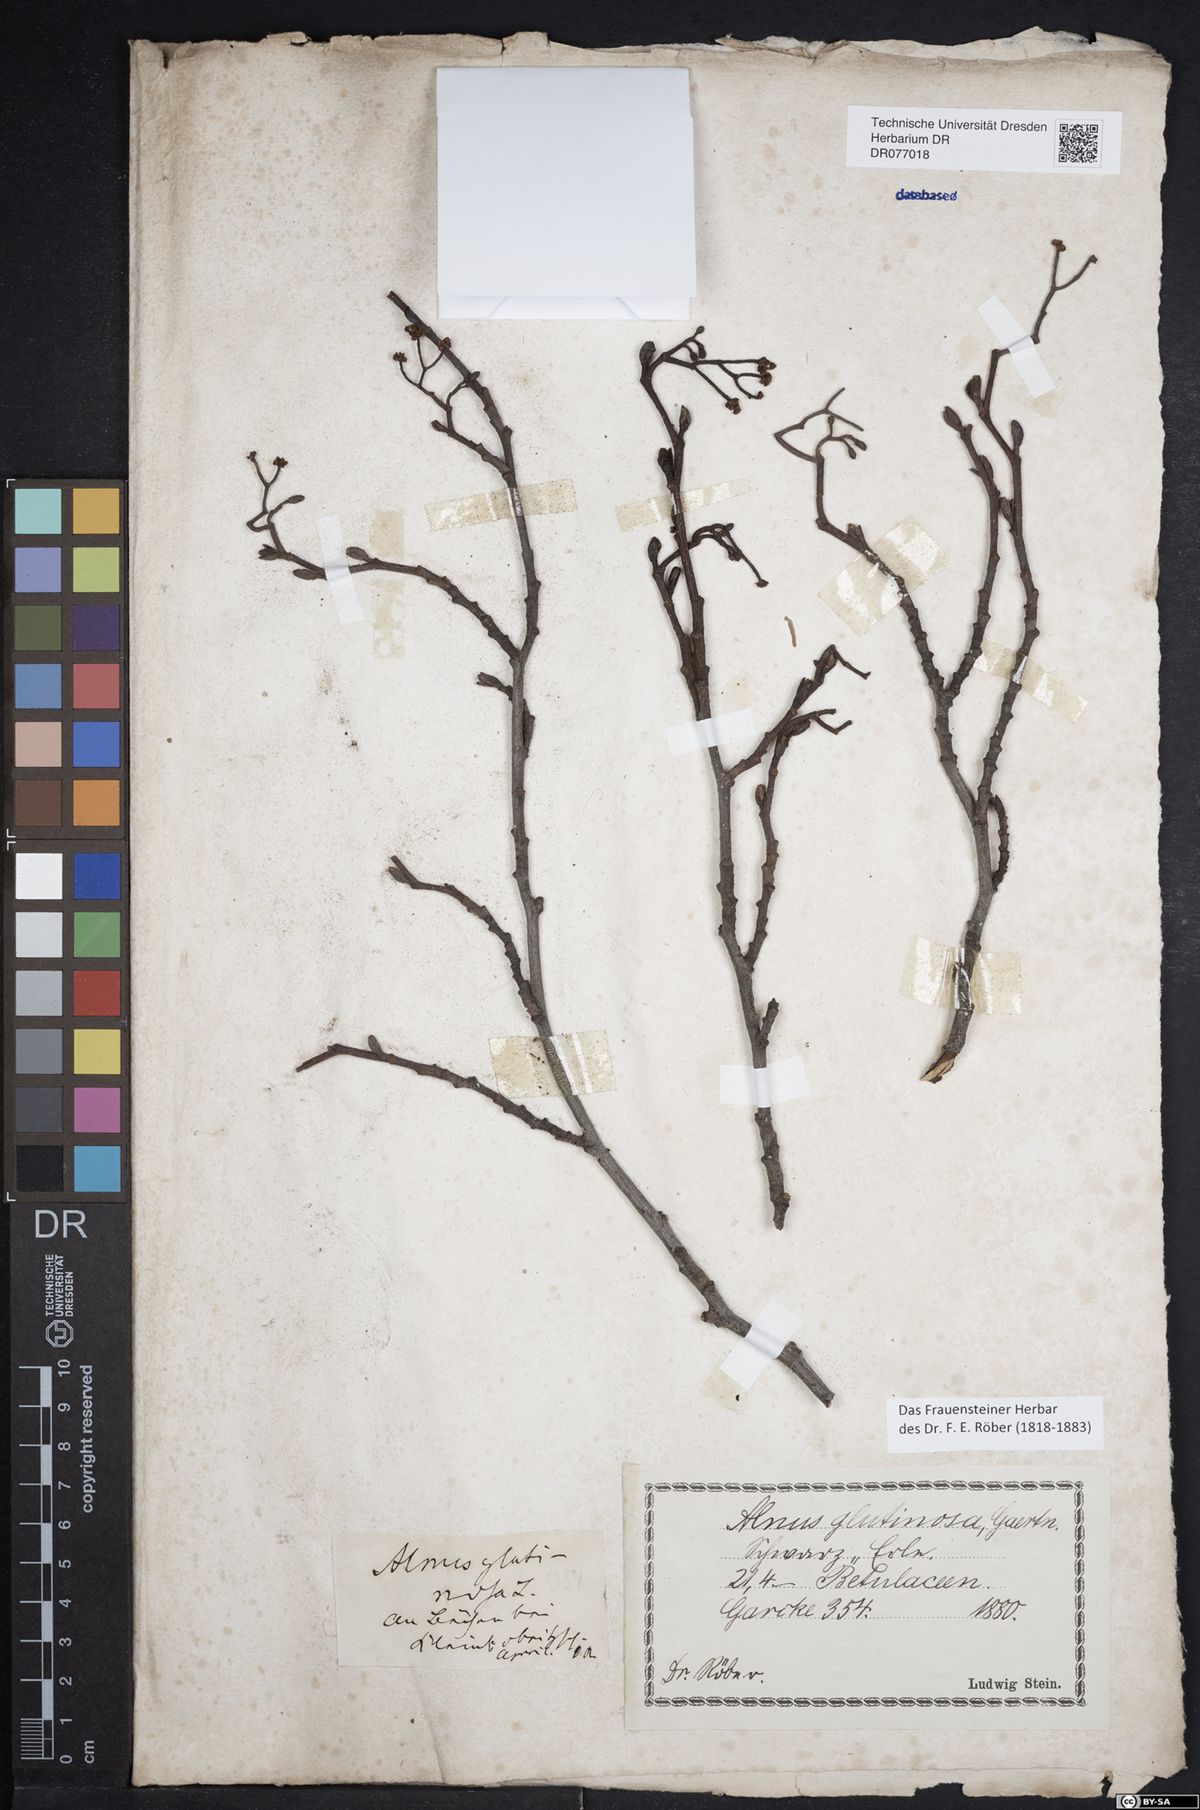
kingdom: Plantae
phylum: Tracheophyta
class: Magnoliopsida
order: Fagales
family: Betulaceae
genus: Alnus
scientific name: Alnus glutinosa
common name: Black alder
